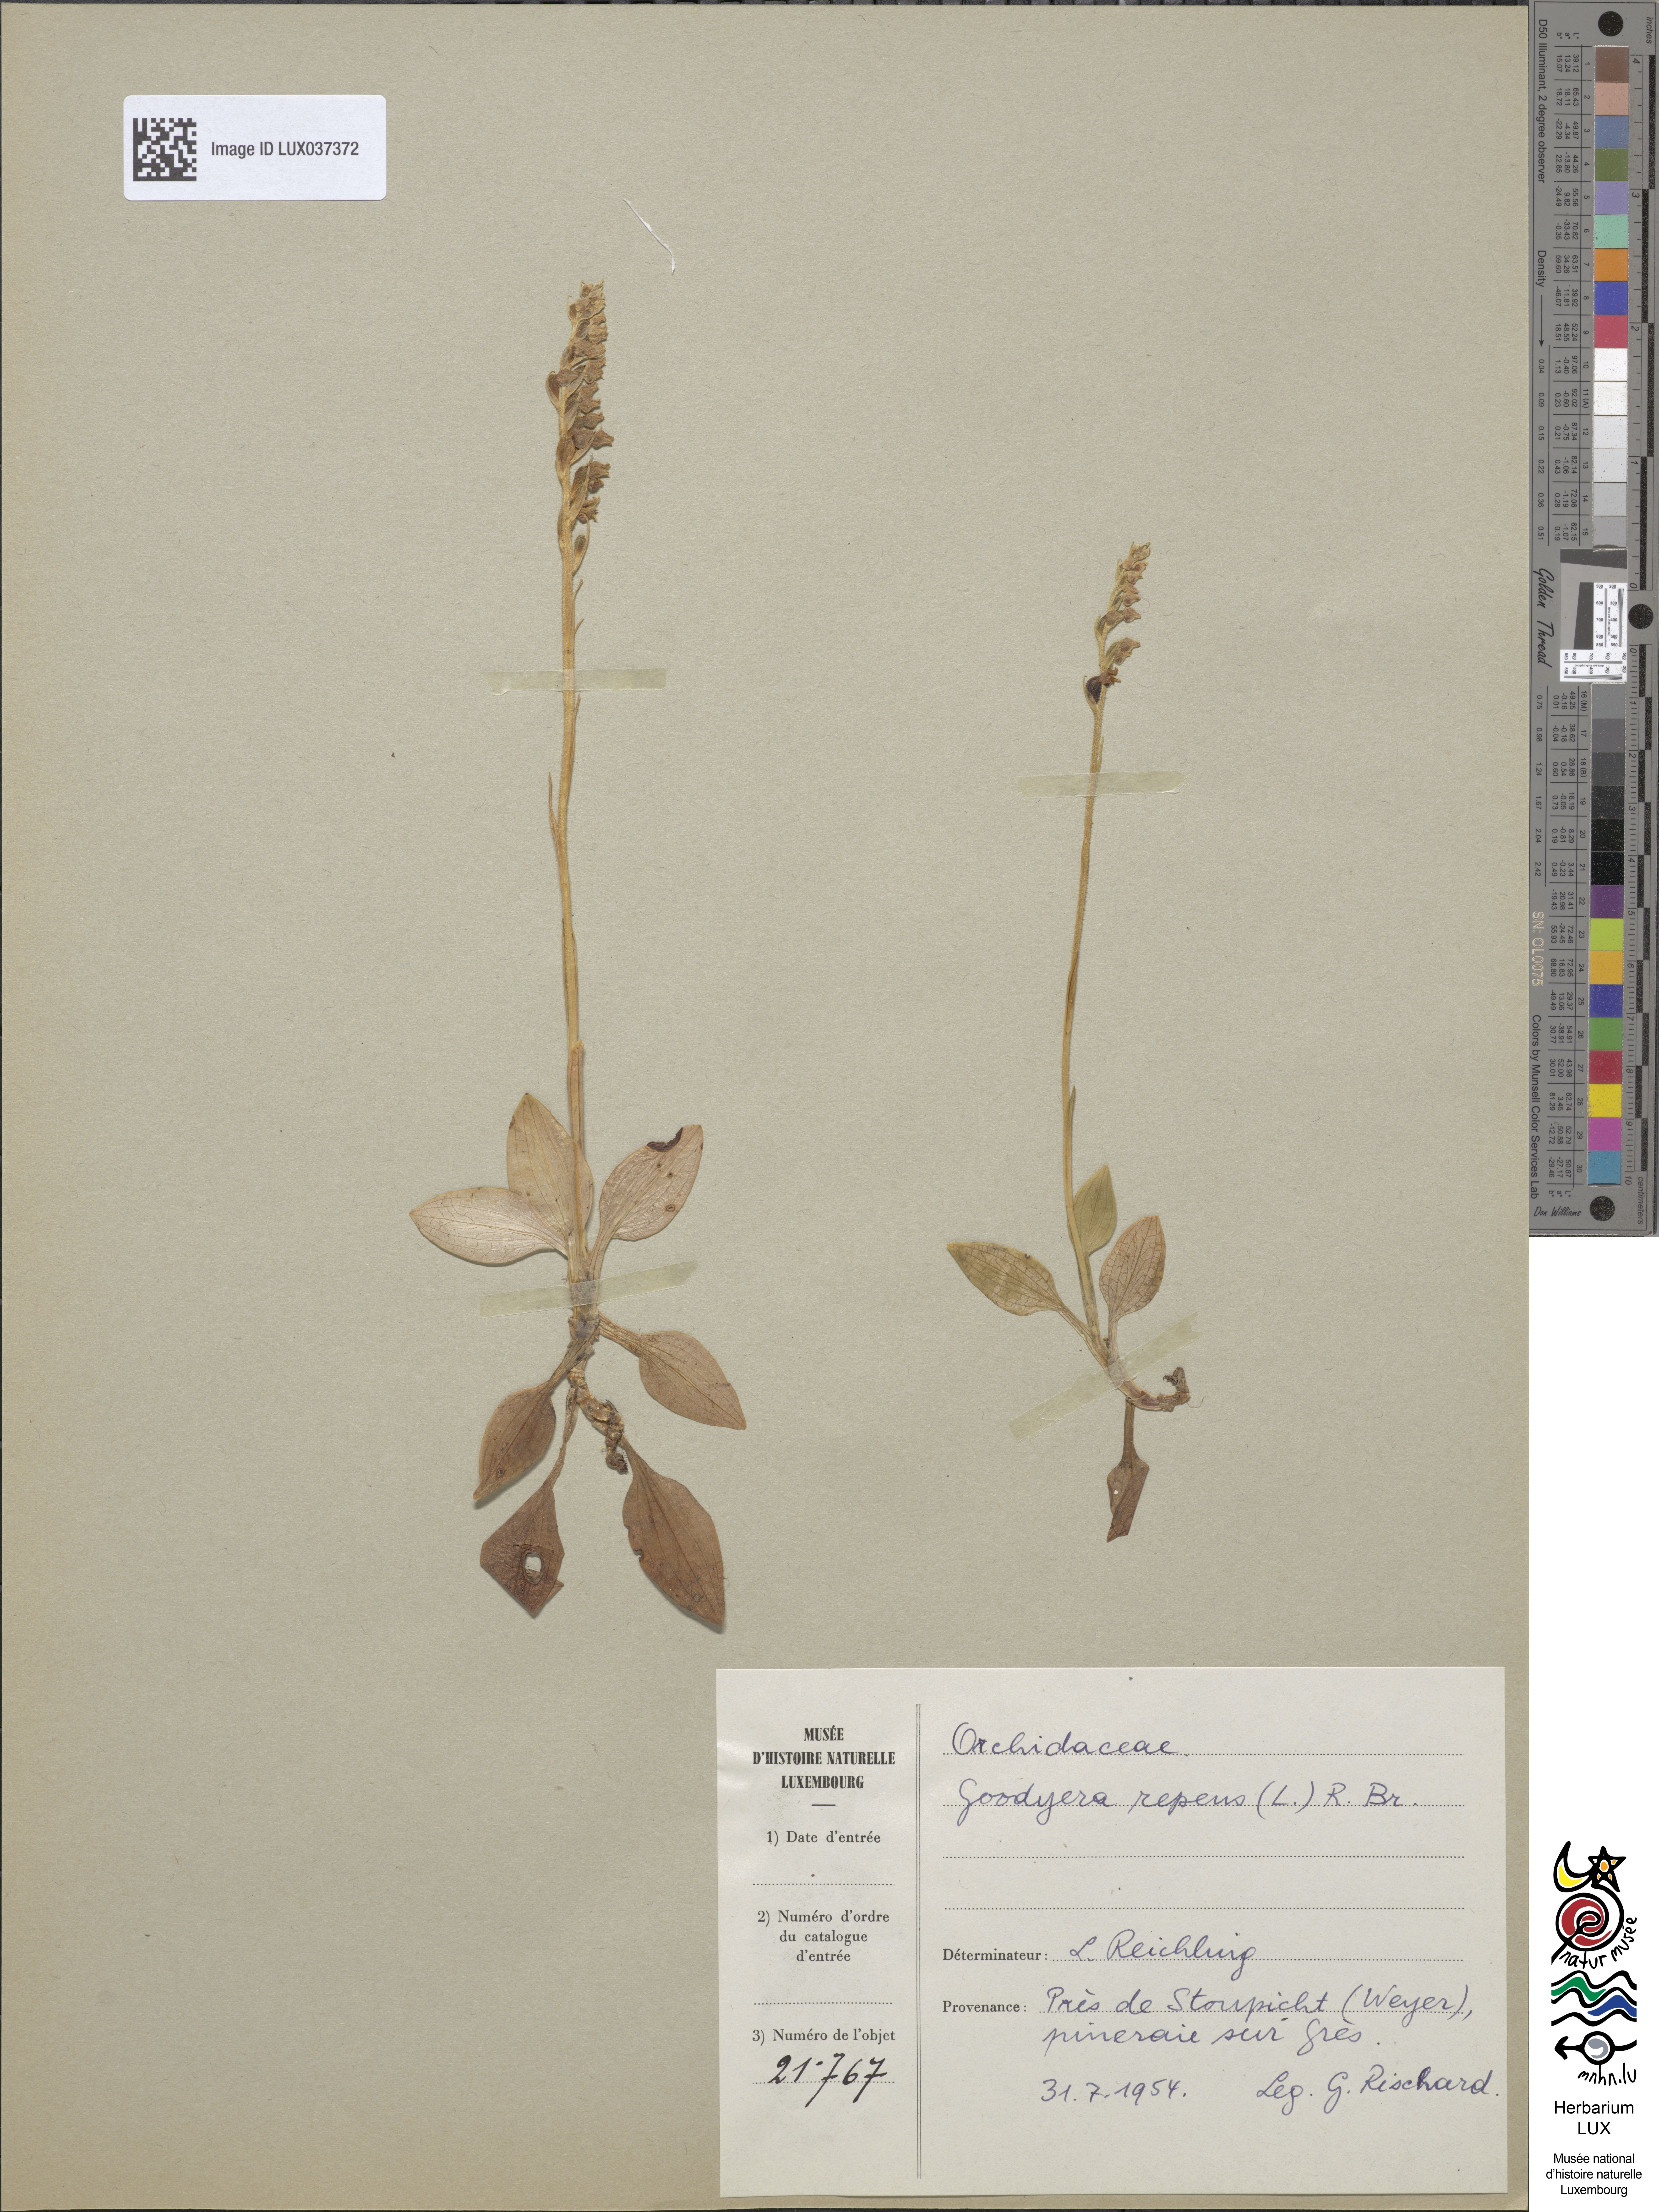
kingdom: Plantae
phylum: Tracheophyta
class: Liliopsida
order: Asparagales
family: Orchidaceae
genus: Goodyera
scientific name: Goodyera repens
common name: Creeping lady's-tresses
